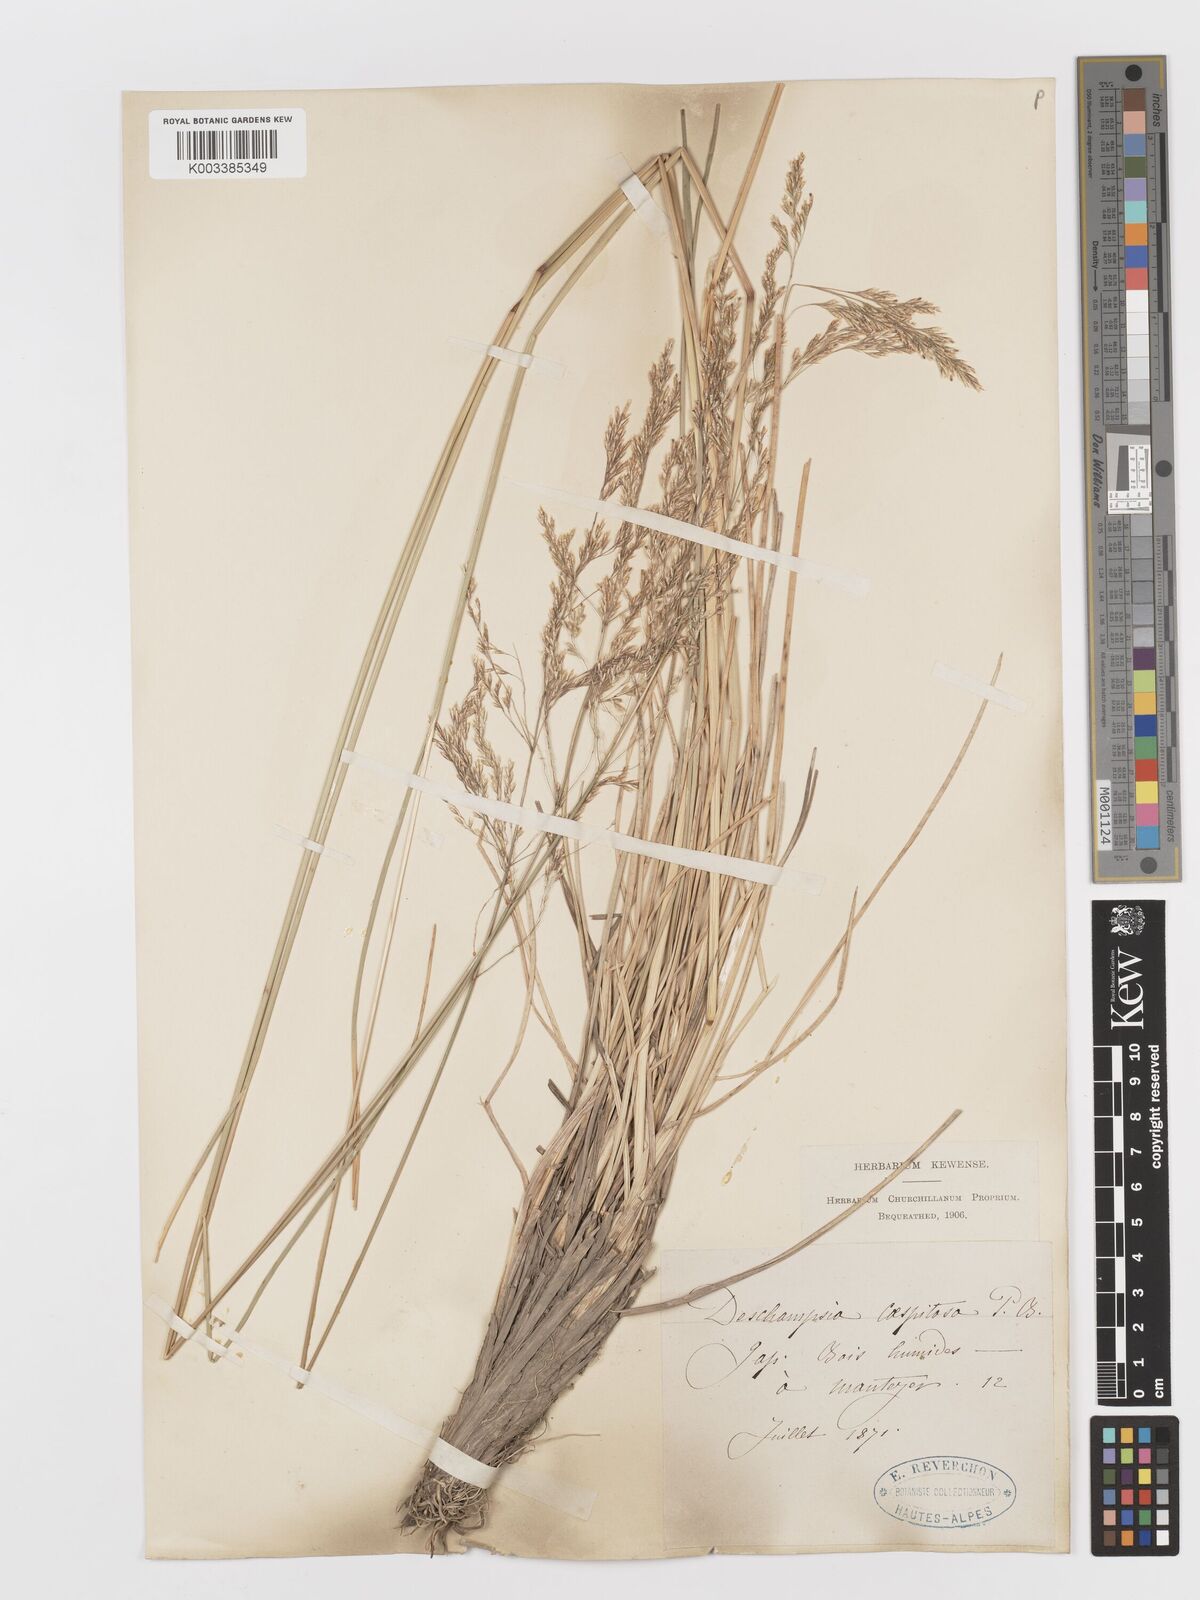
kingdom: Plantae
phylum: Tracheophyta
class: Liliopsida
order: Poales
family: Poaceae
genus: Deschampsia
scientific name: Deschampsia cespitosa
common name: Tufted hair-grass
